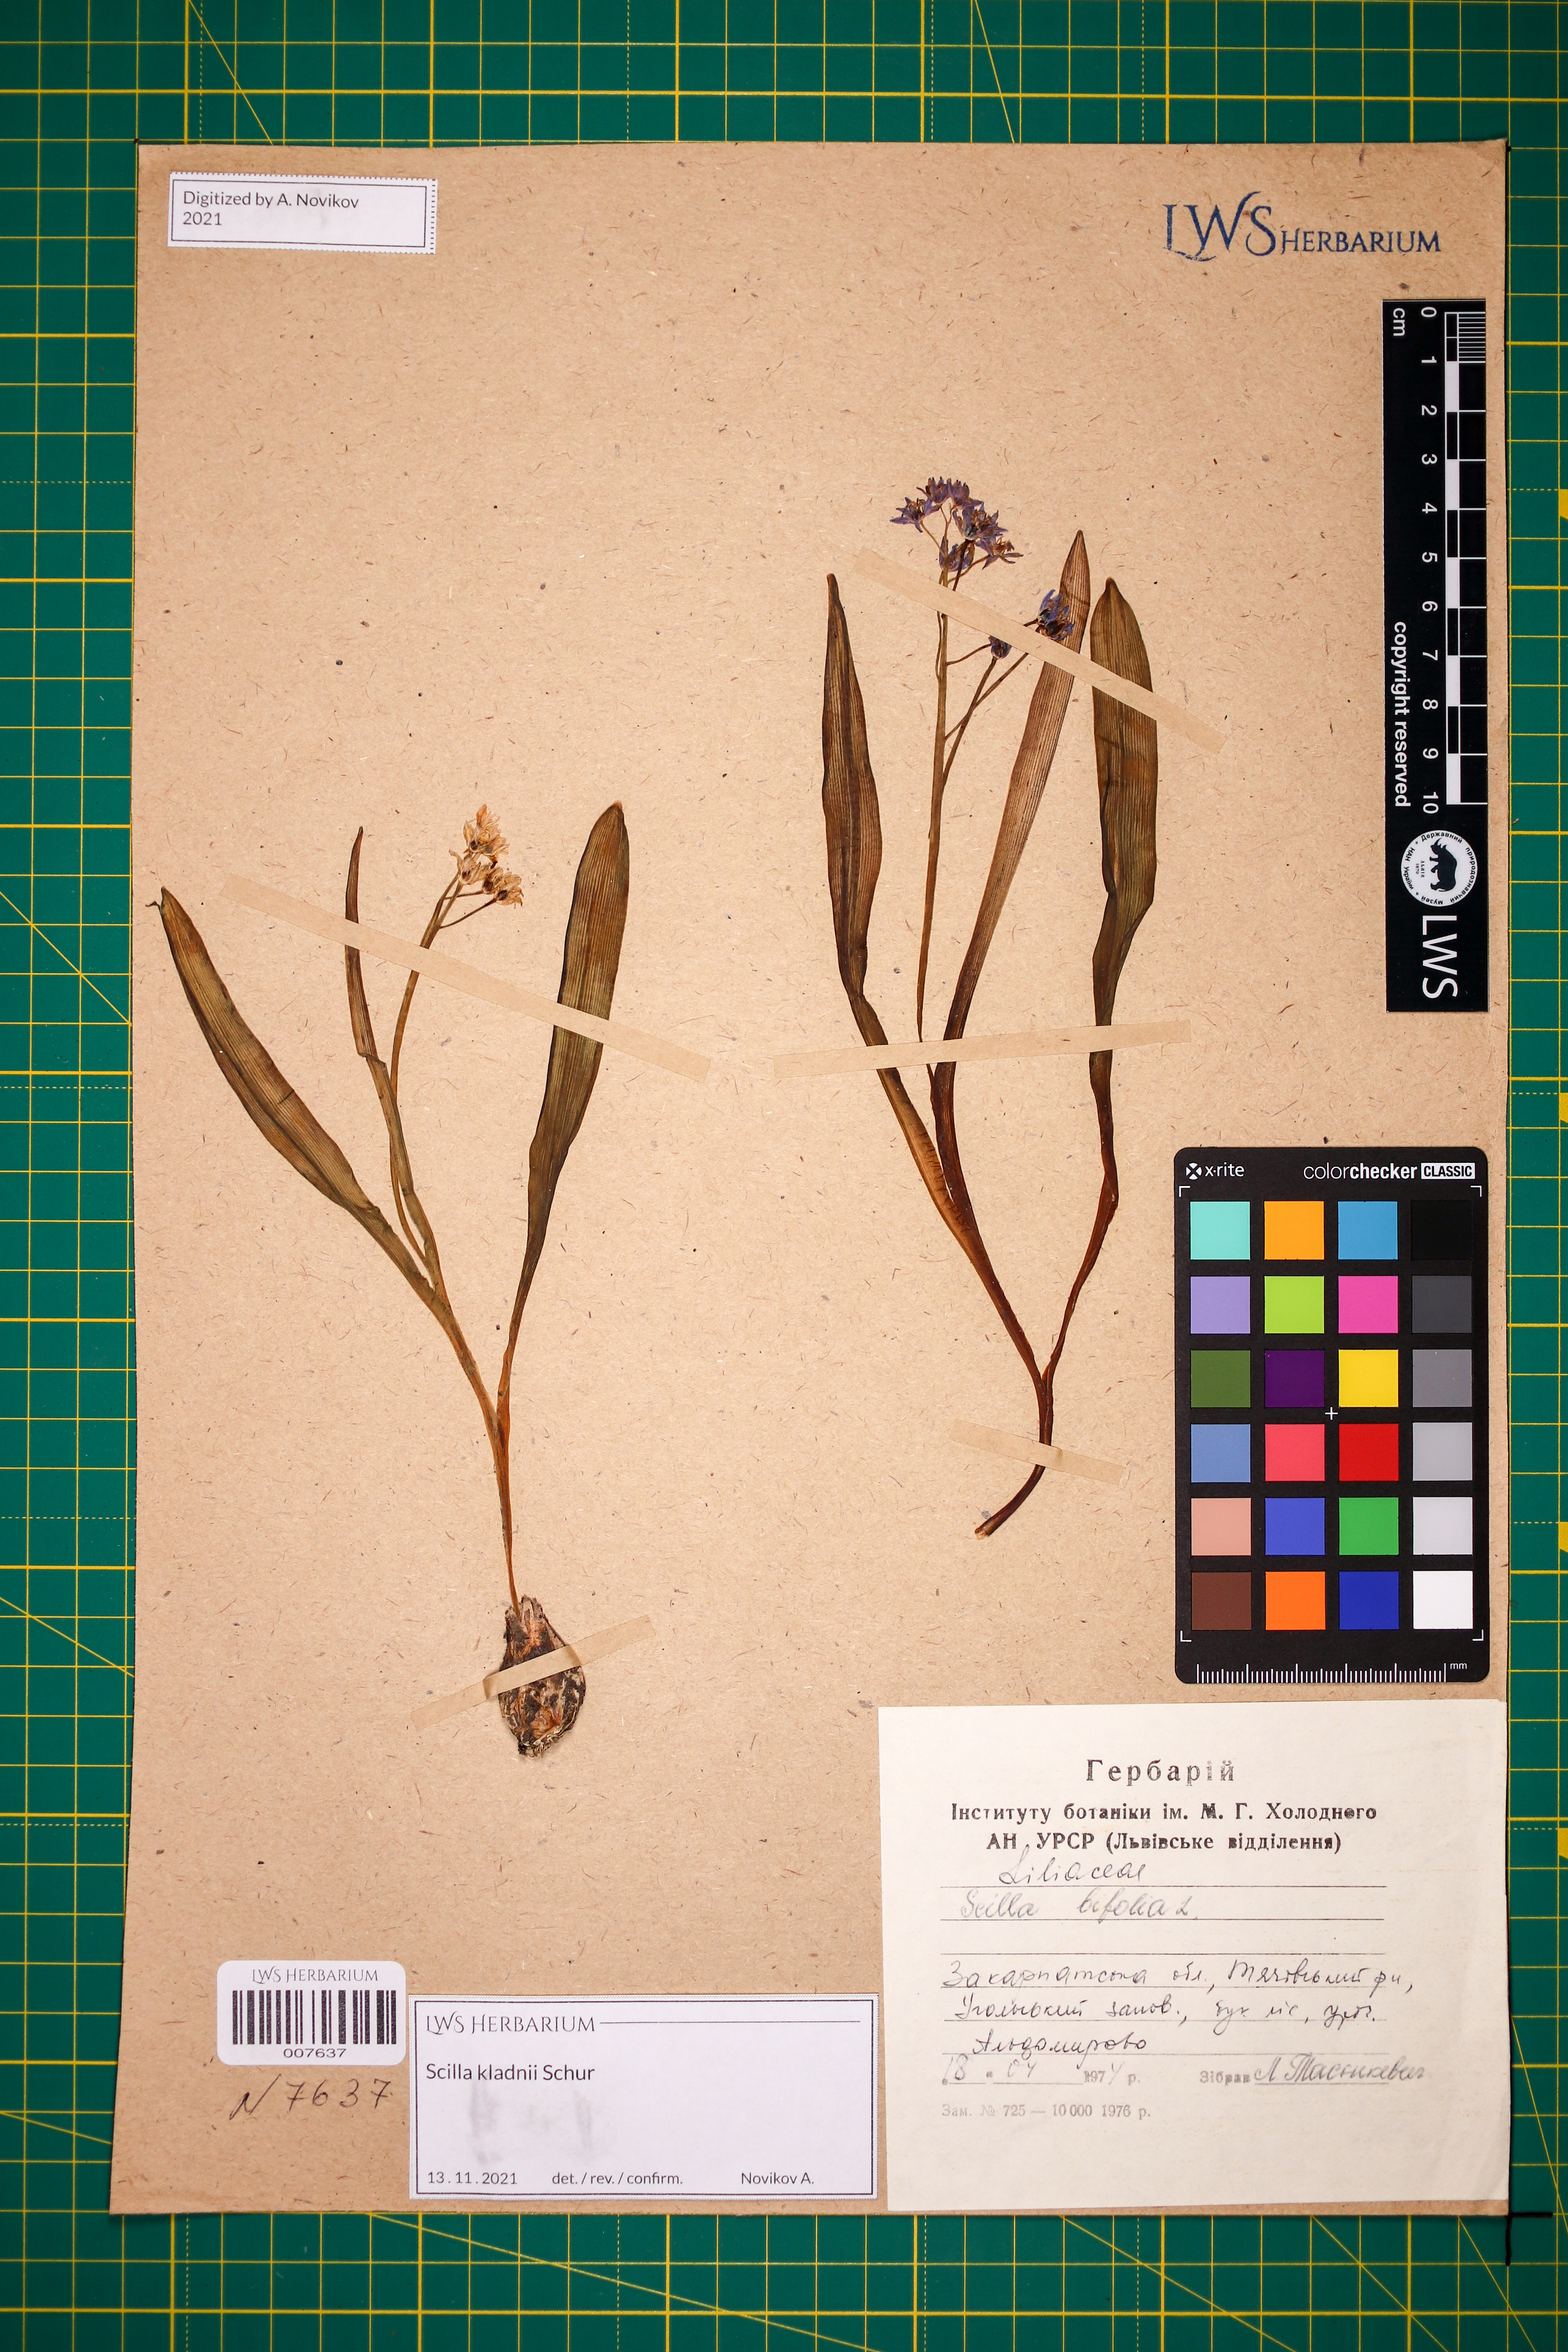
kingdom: Plantae
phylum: Tracheophyta
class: Liliopsida
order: Asparagales
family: Asparagaceae
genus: Scilla
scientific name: Scilla kladnii
